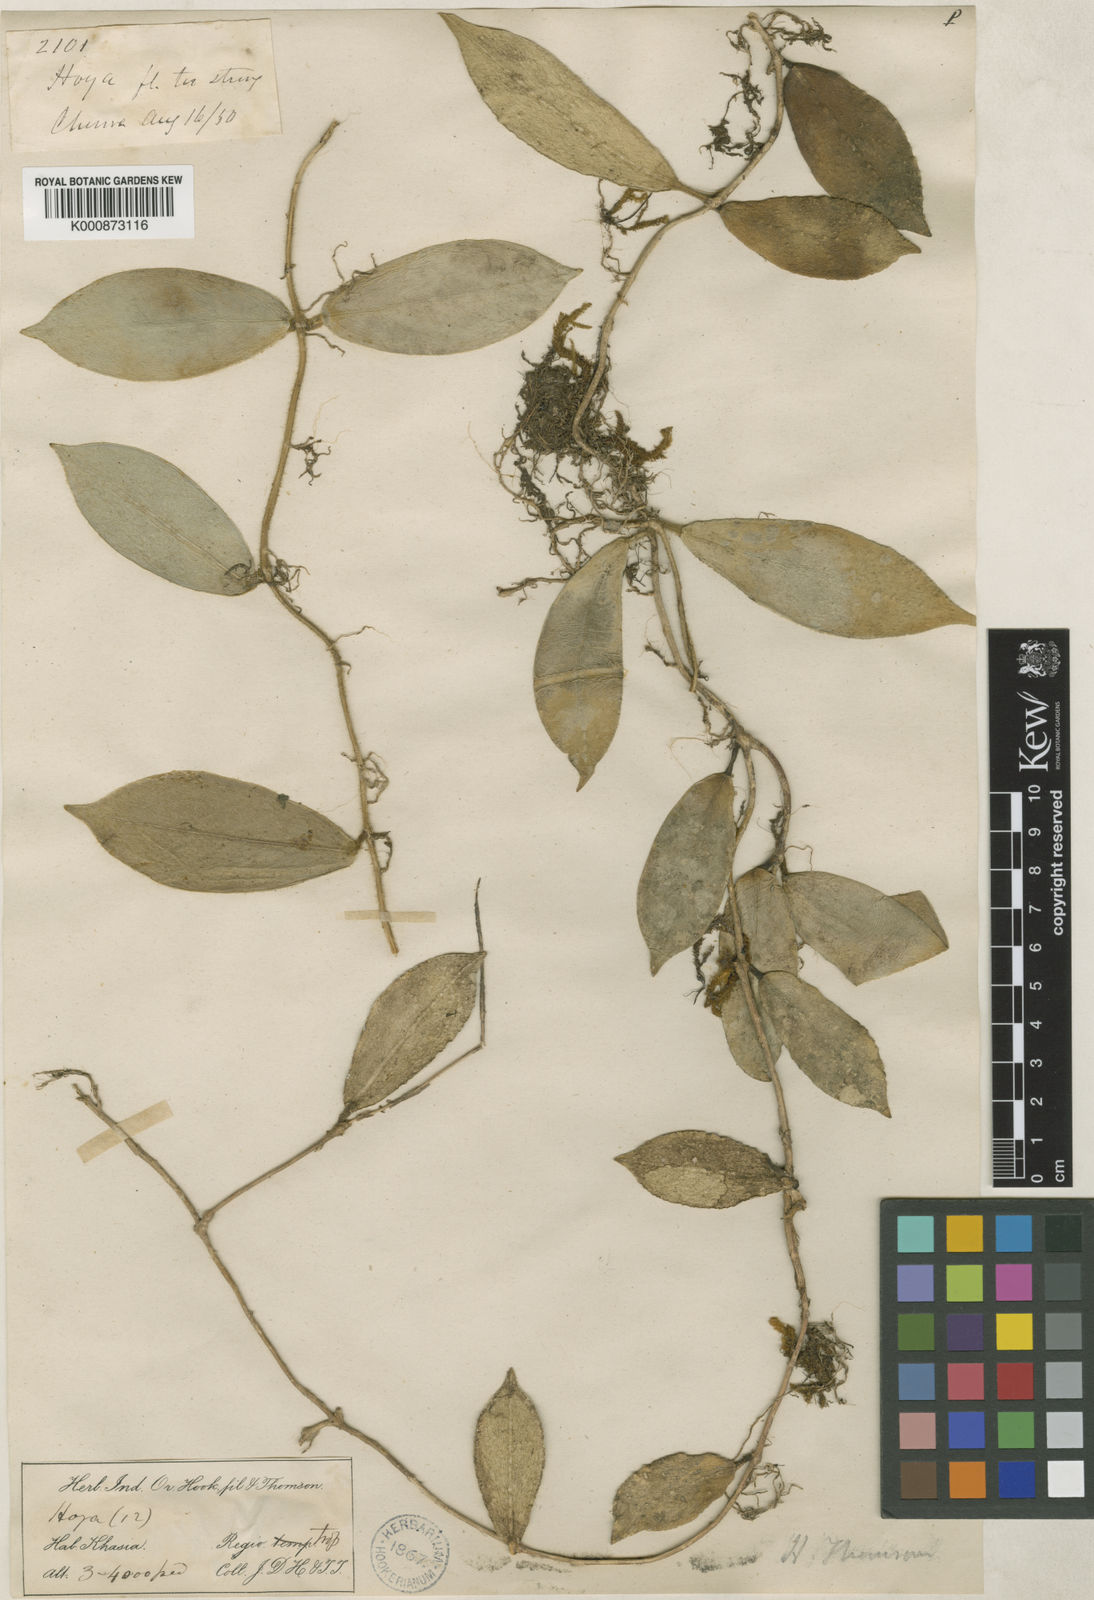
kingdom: Plantae
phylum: Tracheophyta
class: Magnoliopsida
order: Gentianales
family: Apocynaceae
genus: Hoya
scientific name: Hoya thomsonii
